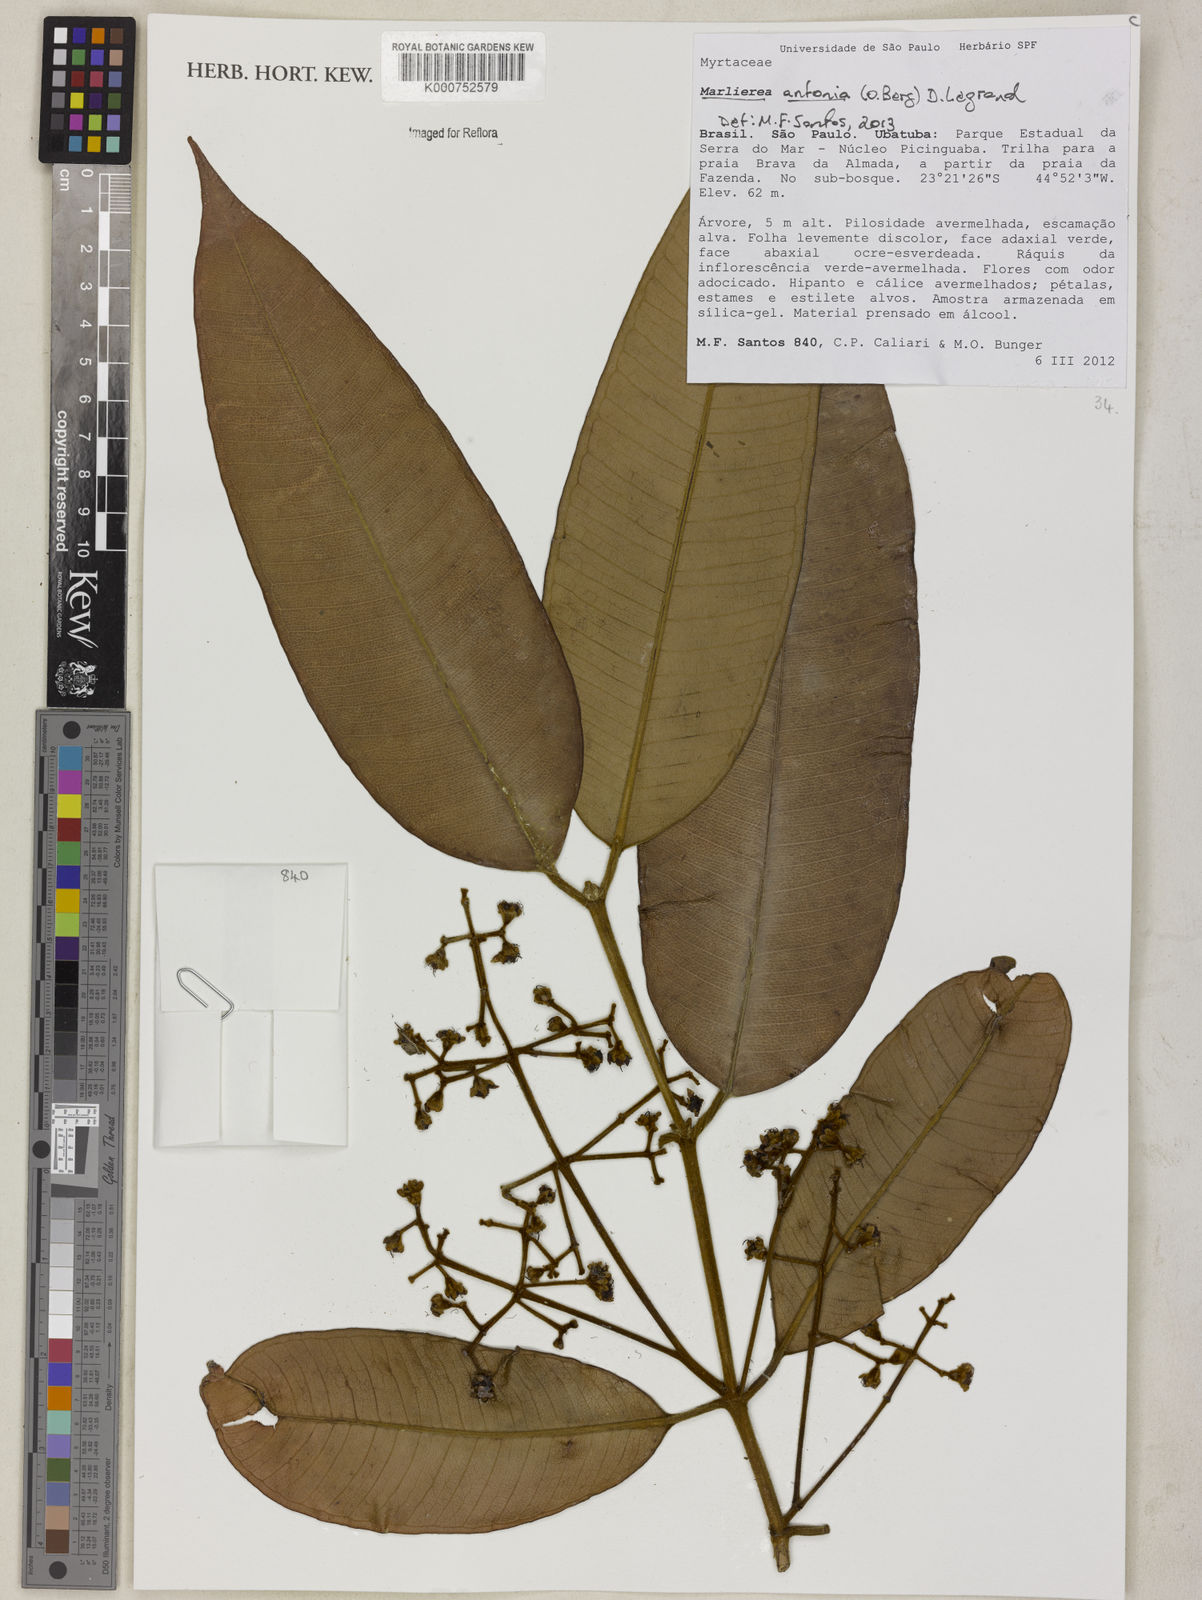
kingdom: Plantae
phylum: Tracheophyta
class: Magnoliopsida
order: Myrtales
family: Myrtaceae
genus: Myrcia
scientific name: Myrcia
